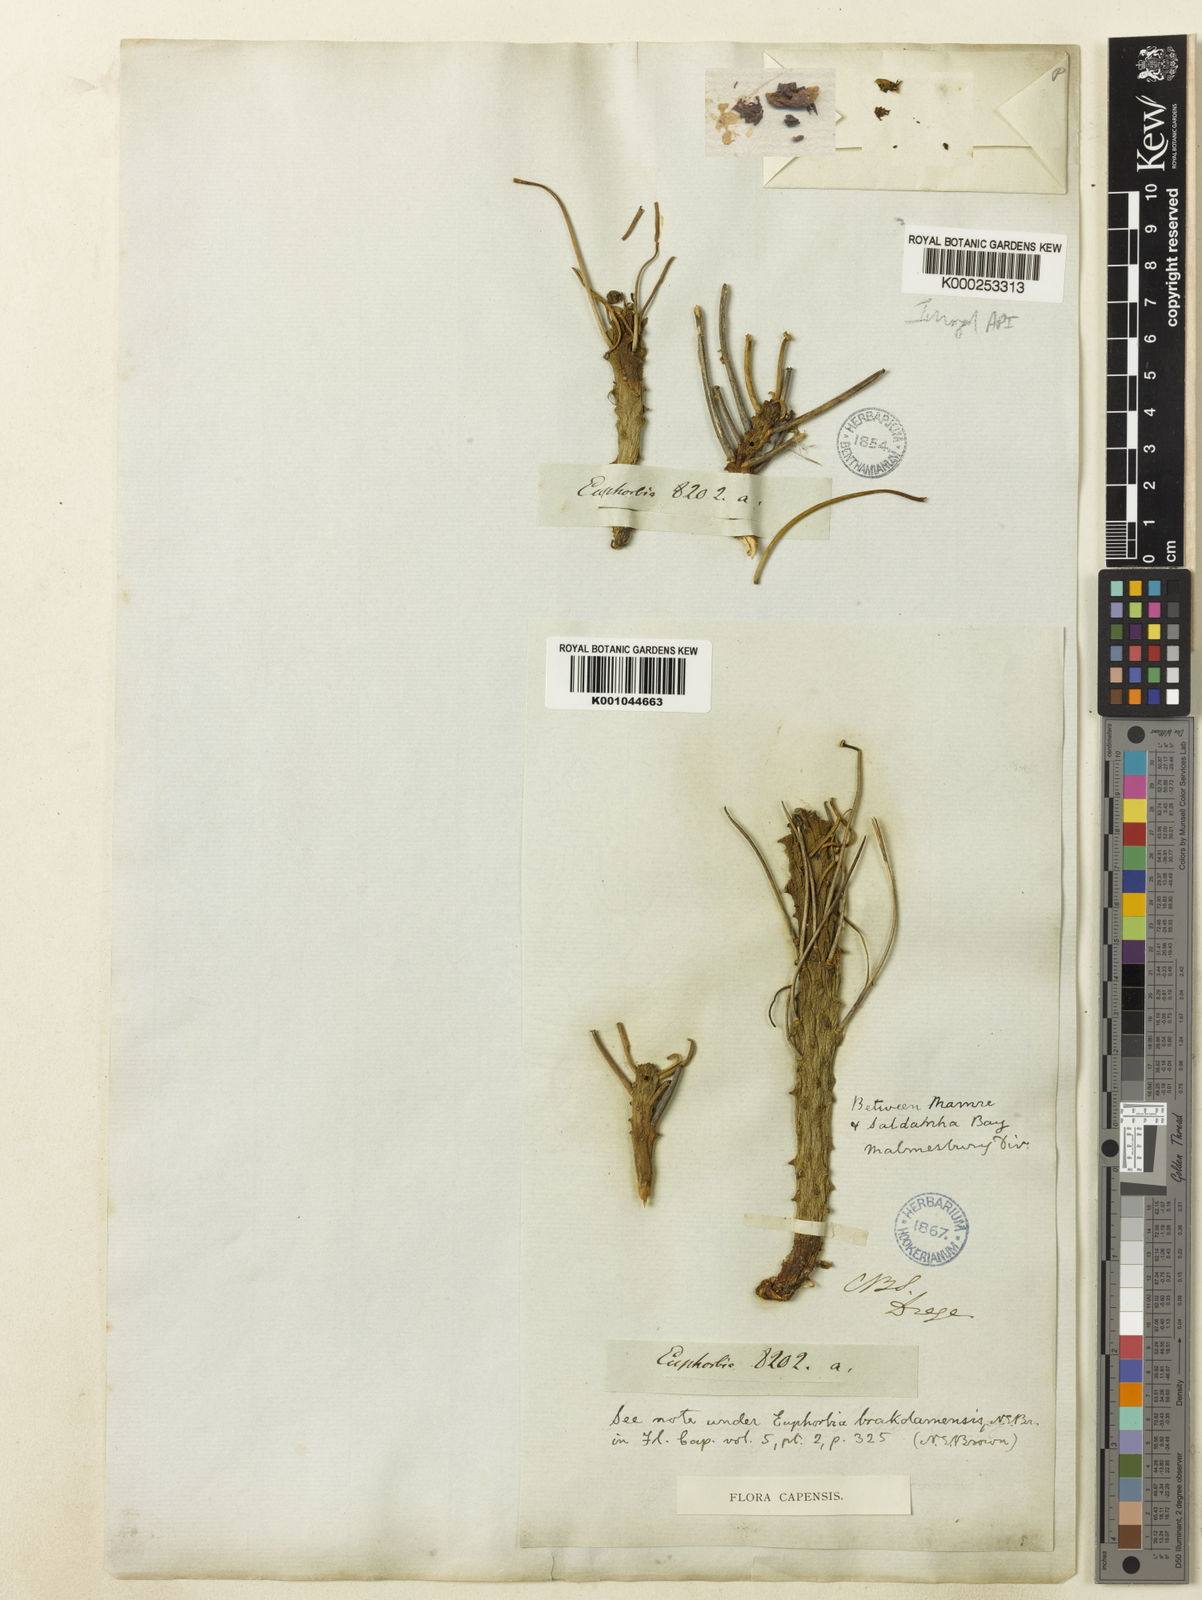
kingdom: Plantae
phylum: Tracheophyta
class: Magnoliopsida
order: Malpighiales
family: Euphorbiaceae
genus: Euphorbia
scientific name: Euphorbia caput-medusae
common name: Medusa's-head
